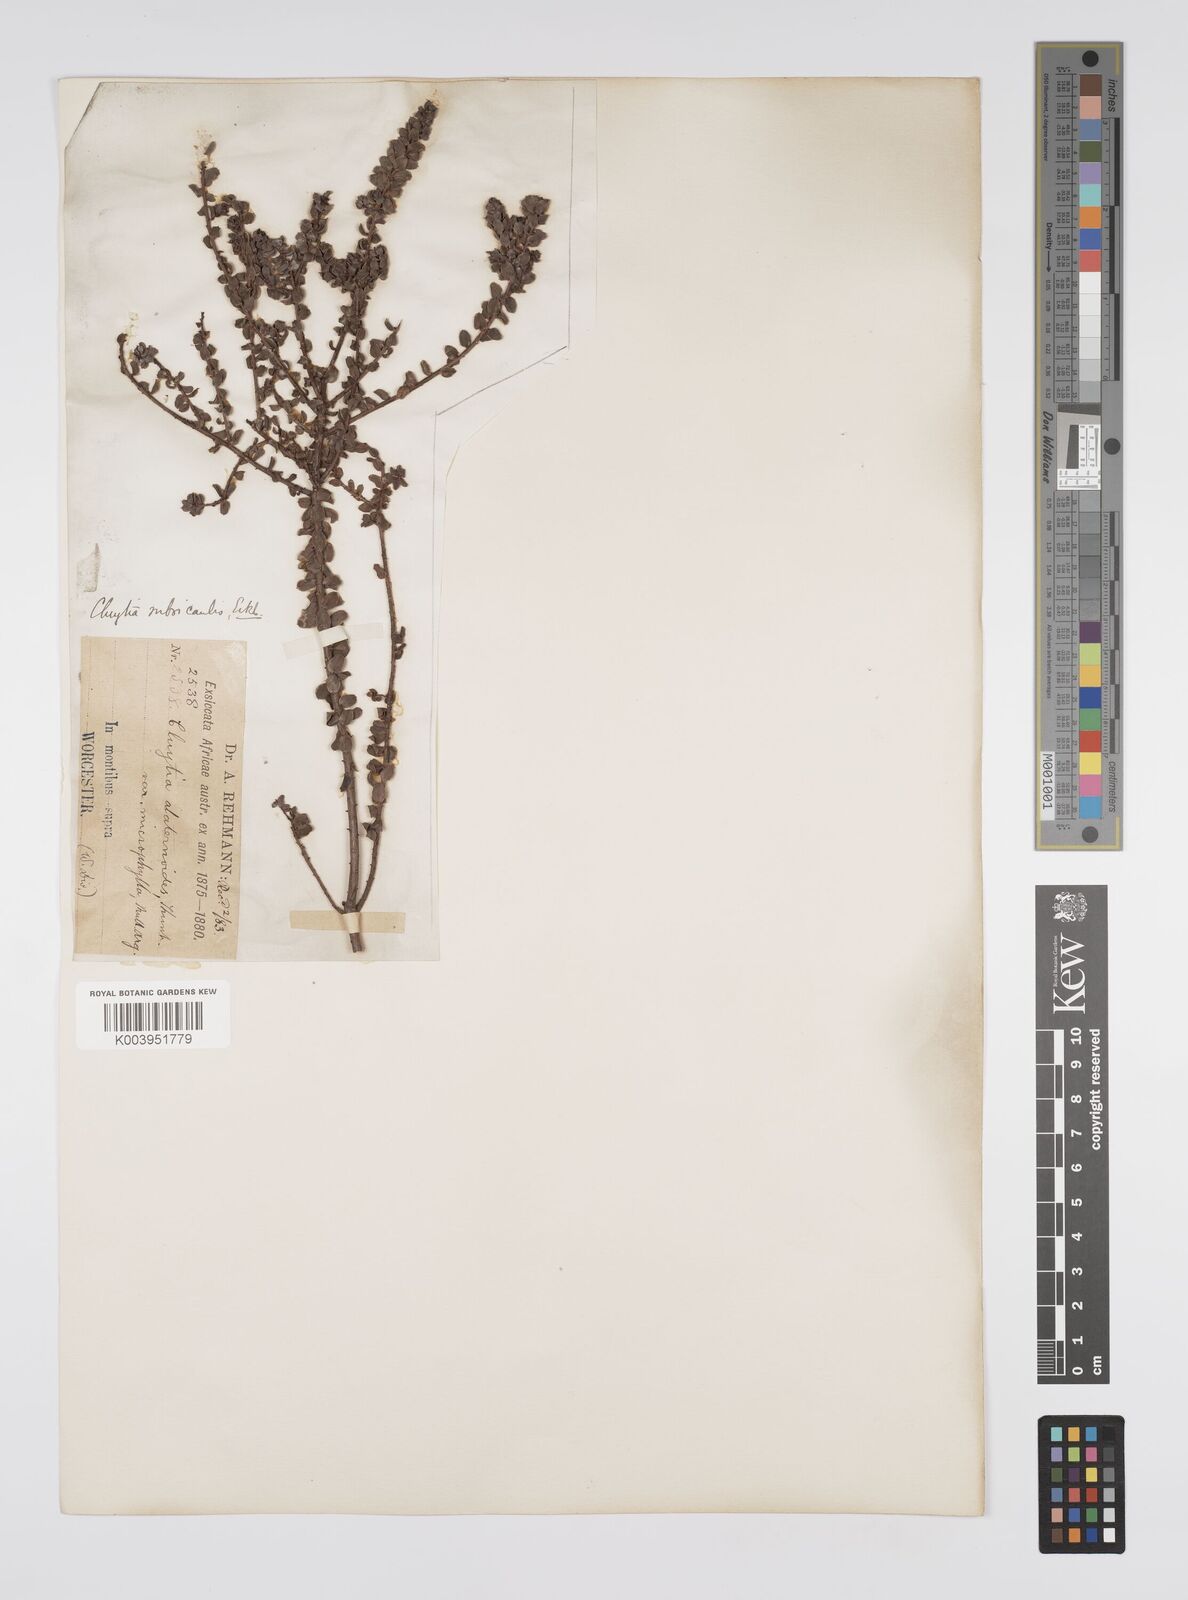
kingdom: Plantae
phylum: Tracheophyta
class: Magnoliopsida
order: Malpighiales
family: Peraceae
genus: Clutia
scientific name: Clutia rubricaulis
